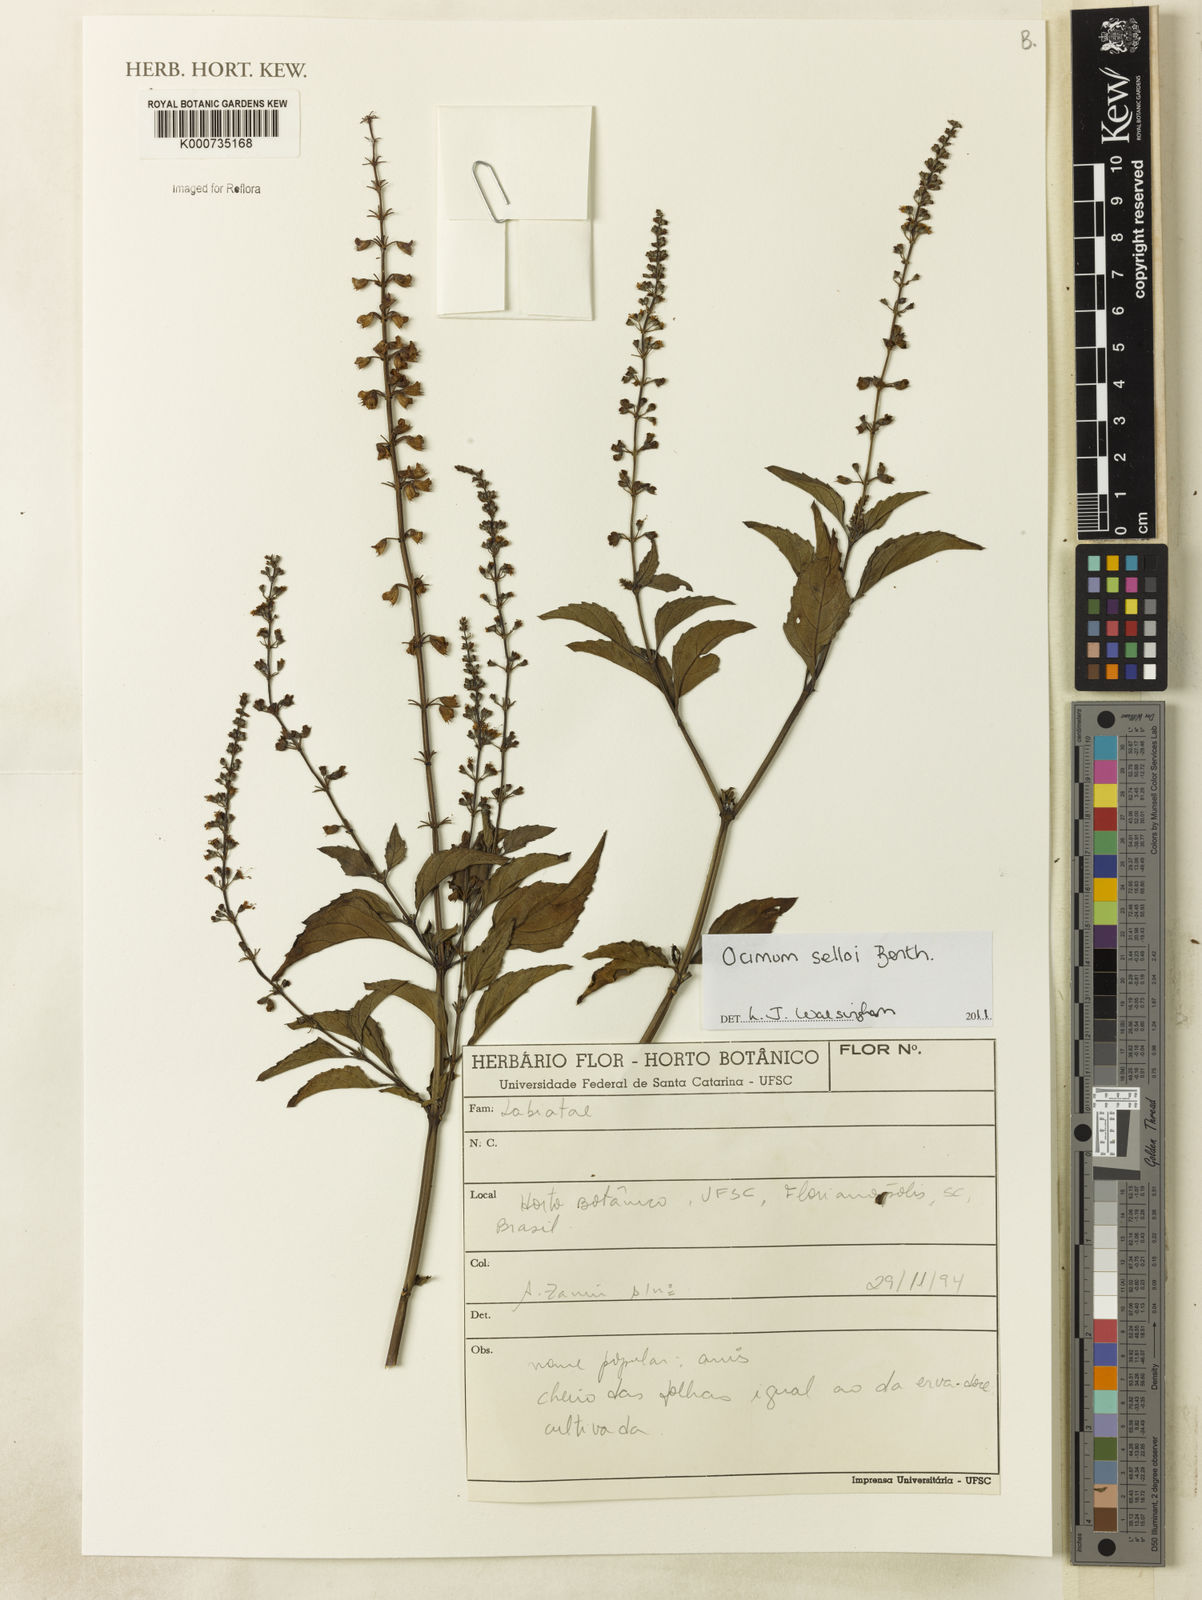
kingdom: Plantae
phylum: Tracheophyta
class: Magnoliopsida
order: Lamiales
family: Lamiaceae
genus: Ocimum
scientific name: Ocimum carnosum
